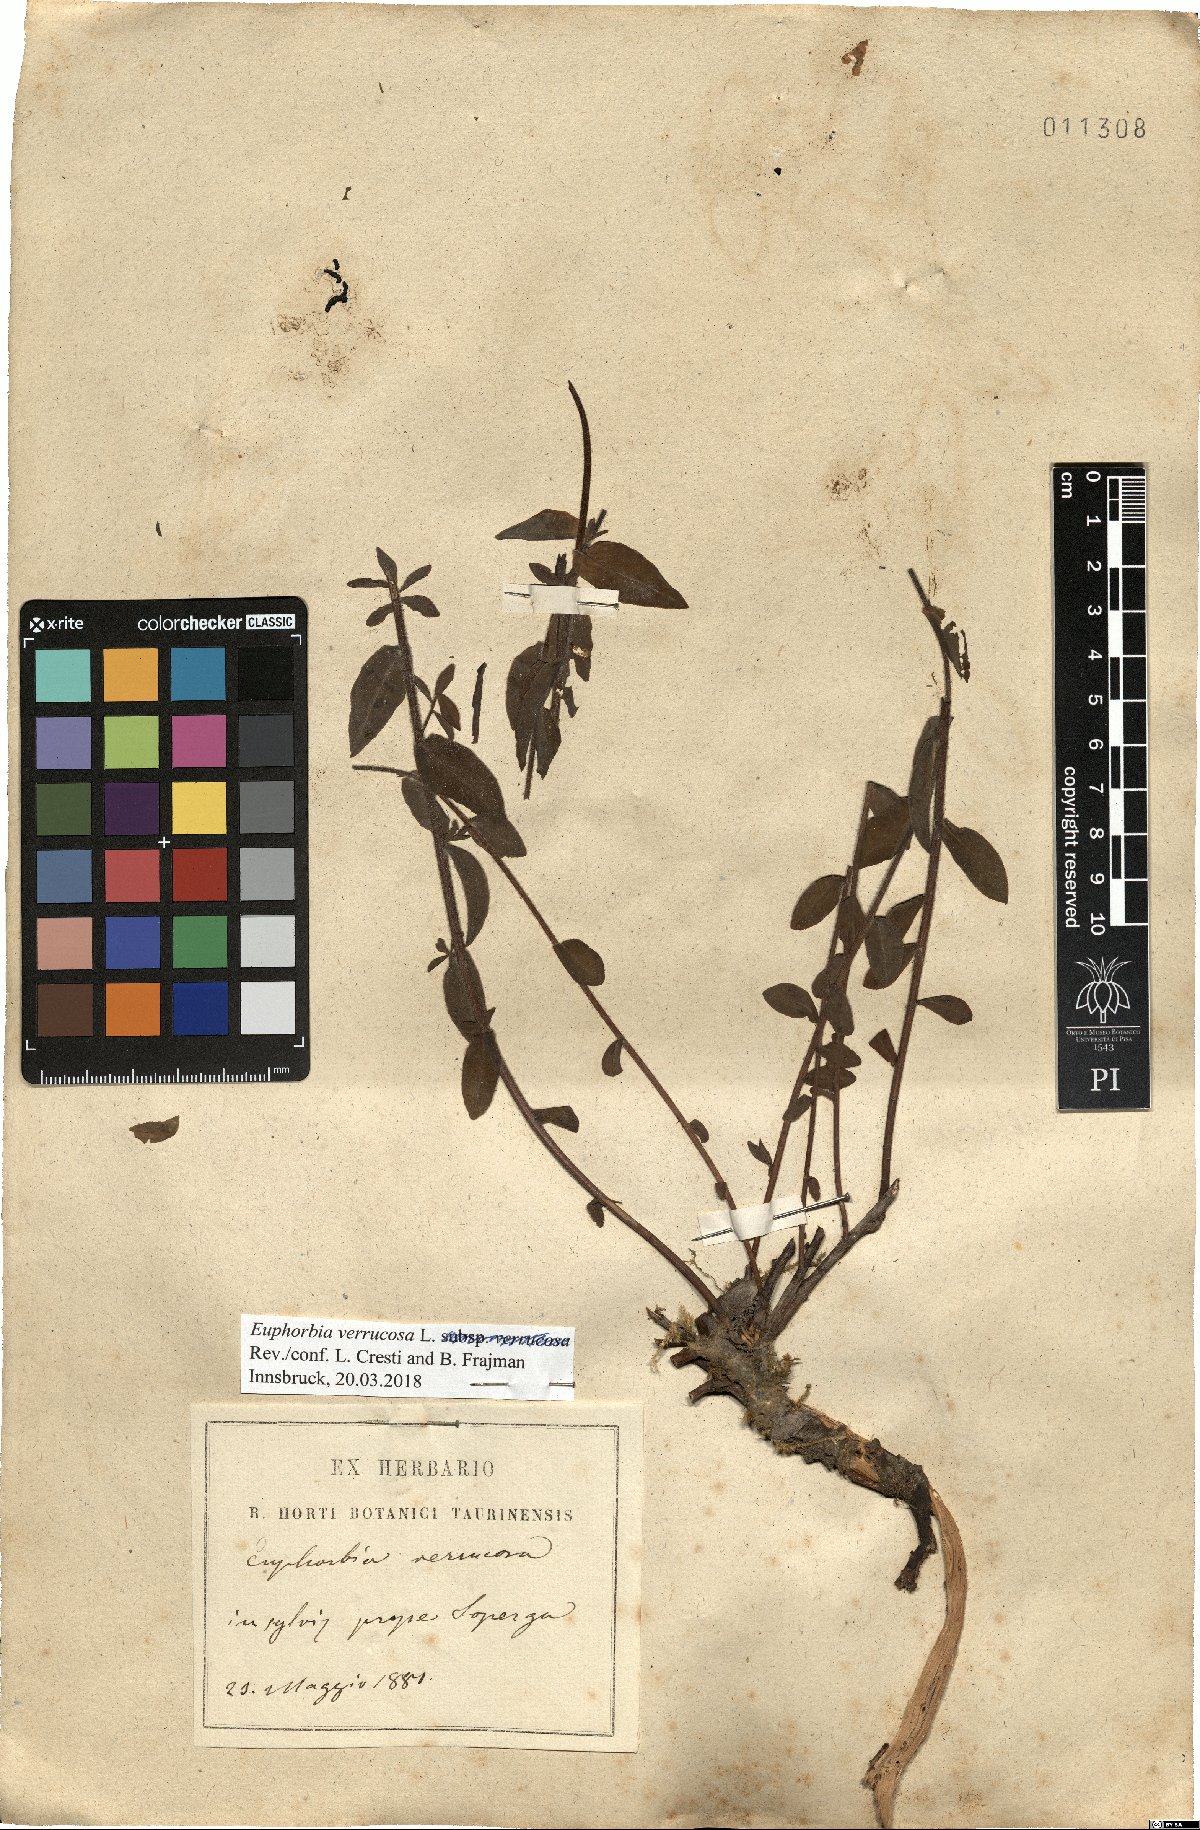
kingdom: Plantae
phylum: Tracheophyta
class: Magnoliopsida
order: Malpighiales
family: Euphorbiaceae
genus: Euphorbia
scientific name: Euphorbia verrucosa
